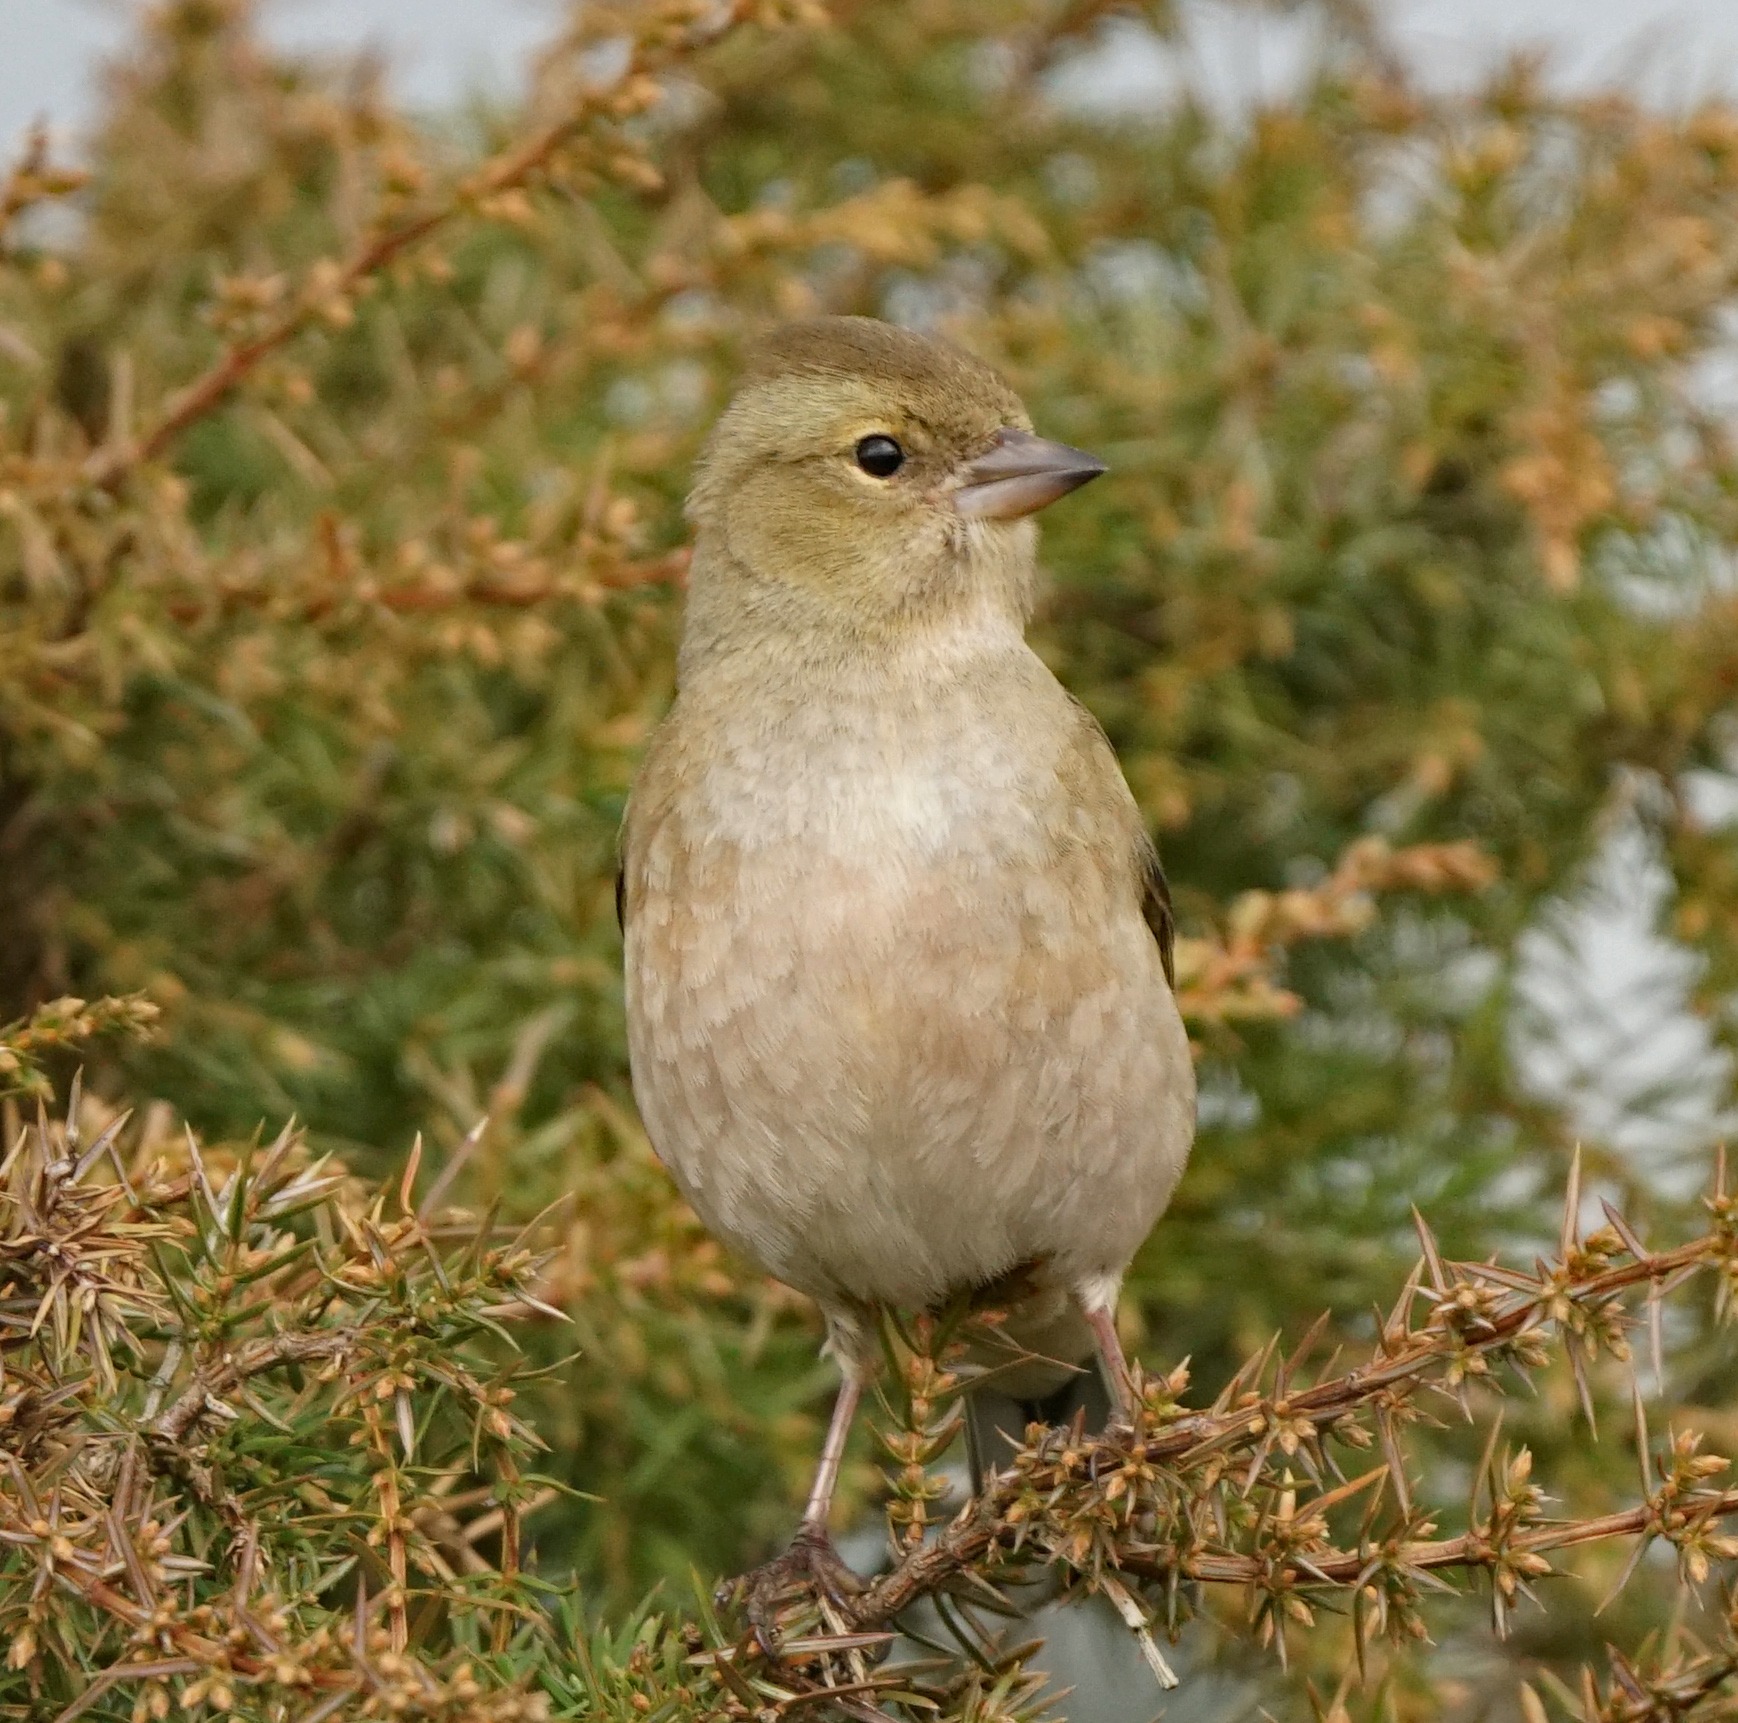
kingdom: Animalia
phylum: Chordata
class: Aves
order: Passeriformes
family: Fringillidae
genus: Fringilla
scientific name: Fringilla coelebs
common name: Bogfinke
